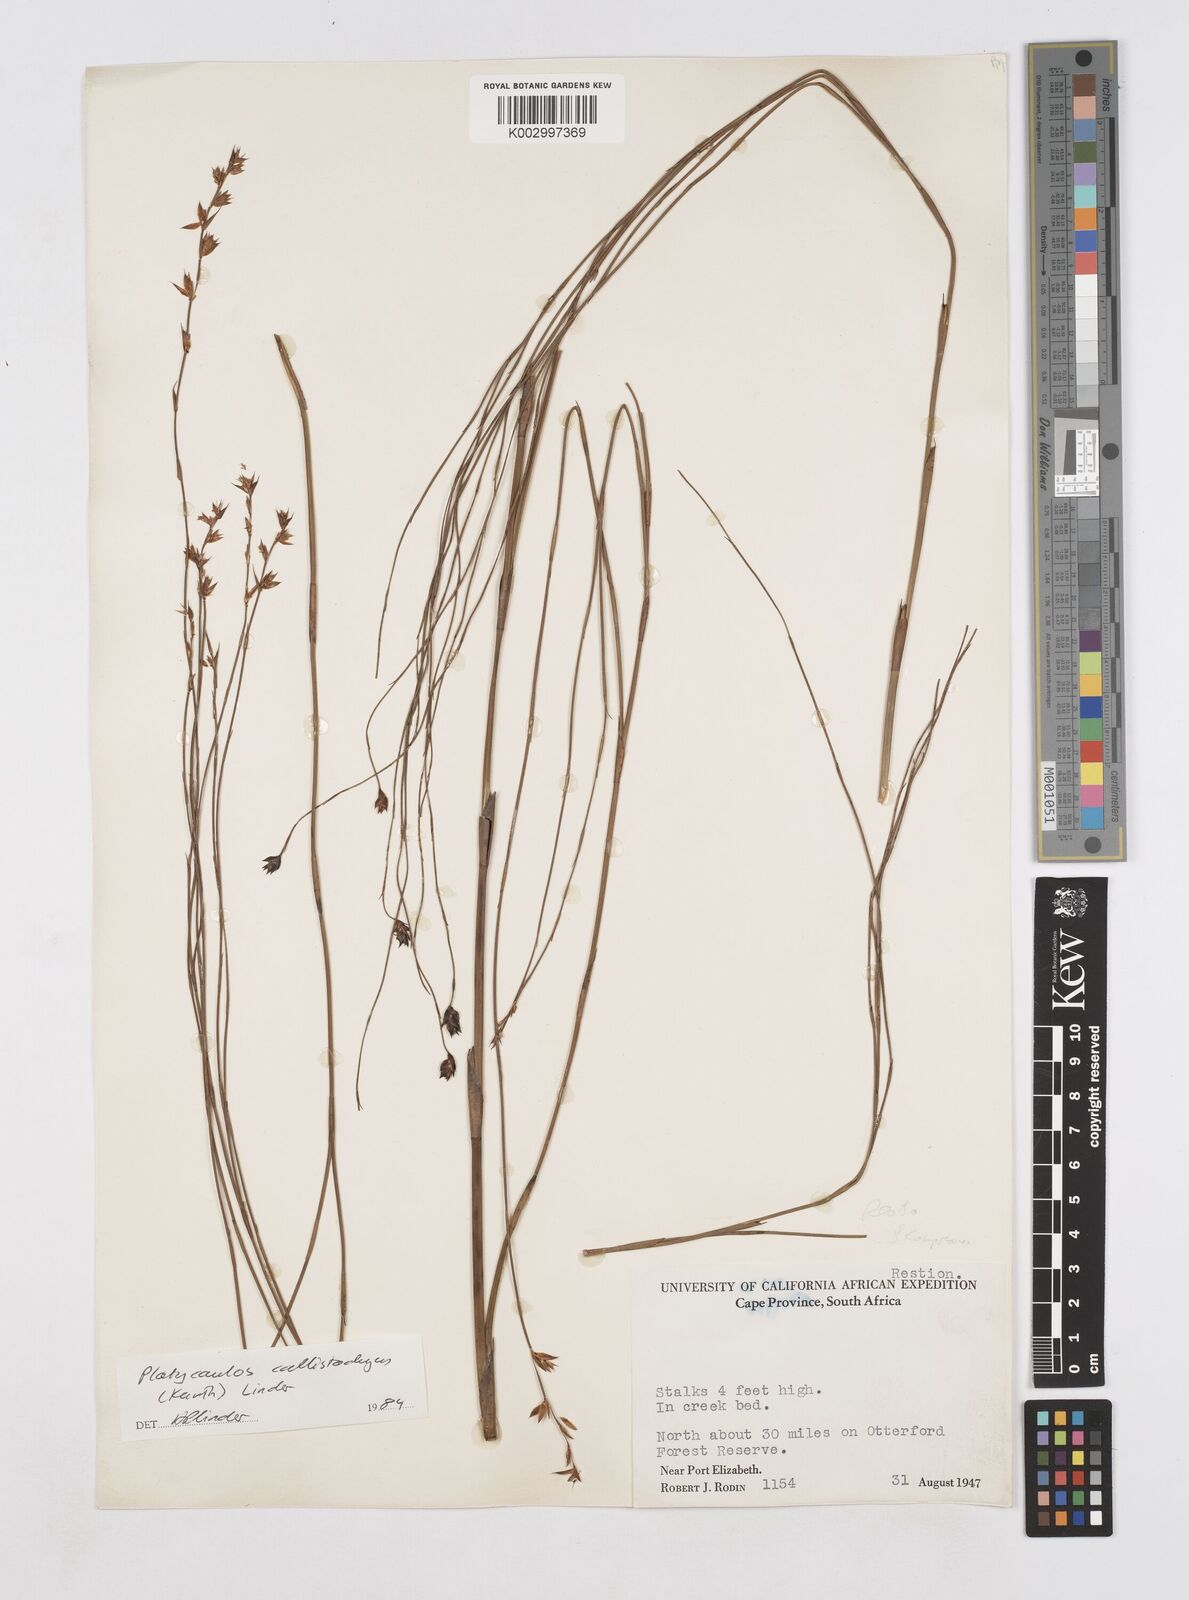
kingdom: Plantae
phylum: Tracheophyta
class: Liliopsida
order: Poales
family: Restionaceae
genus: Platycaulos
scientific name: Platycaulos callistachyus
